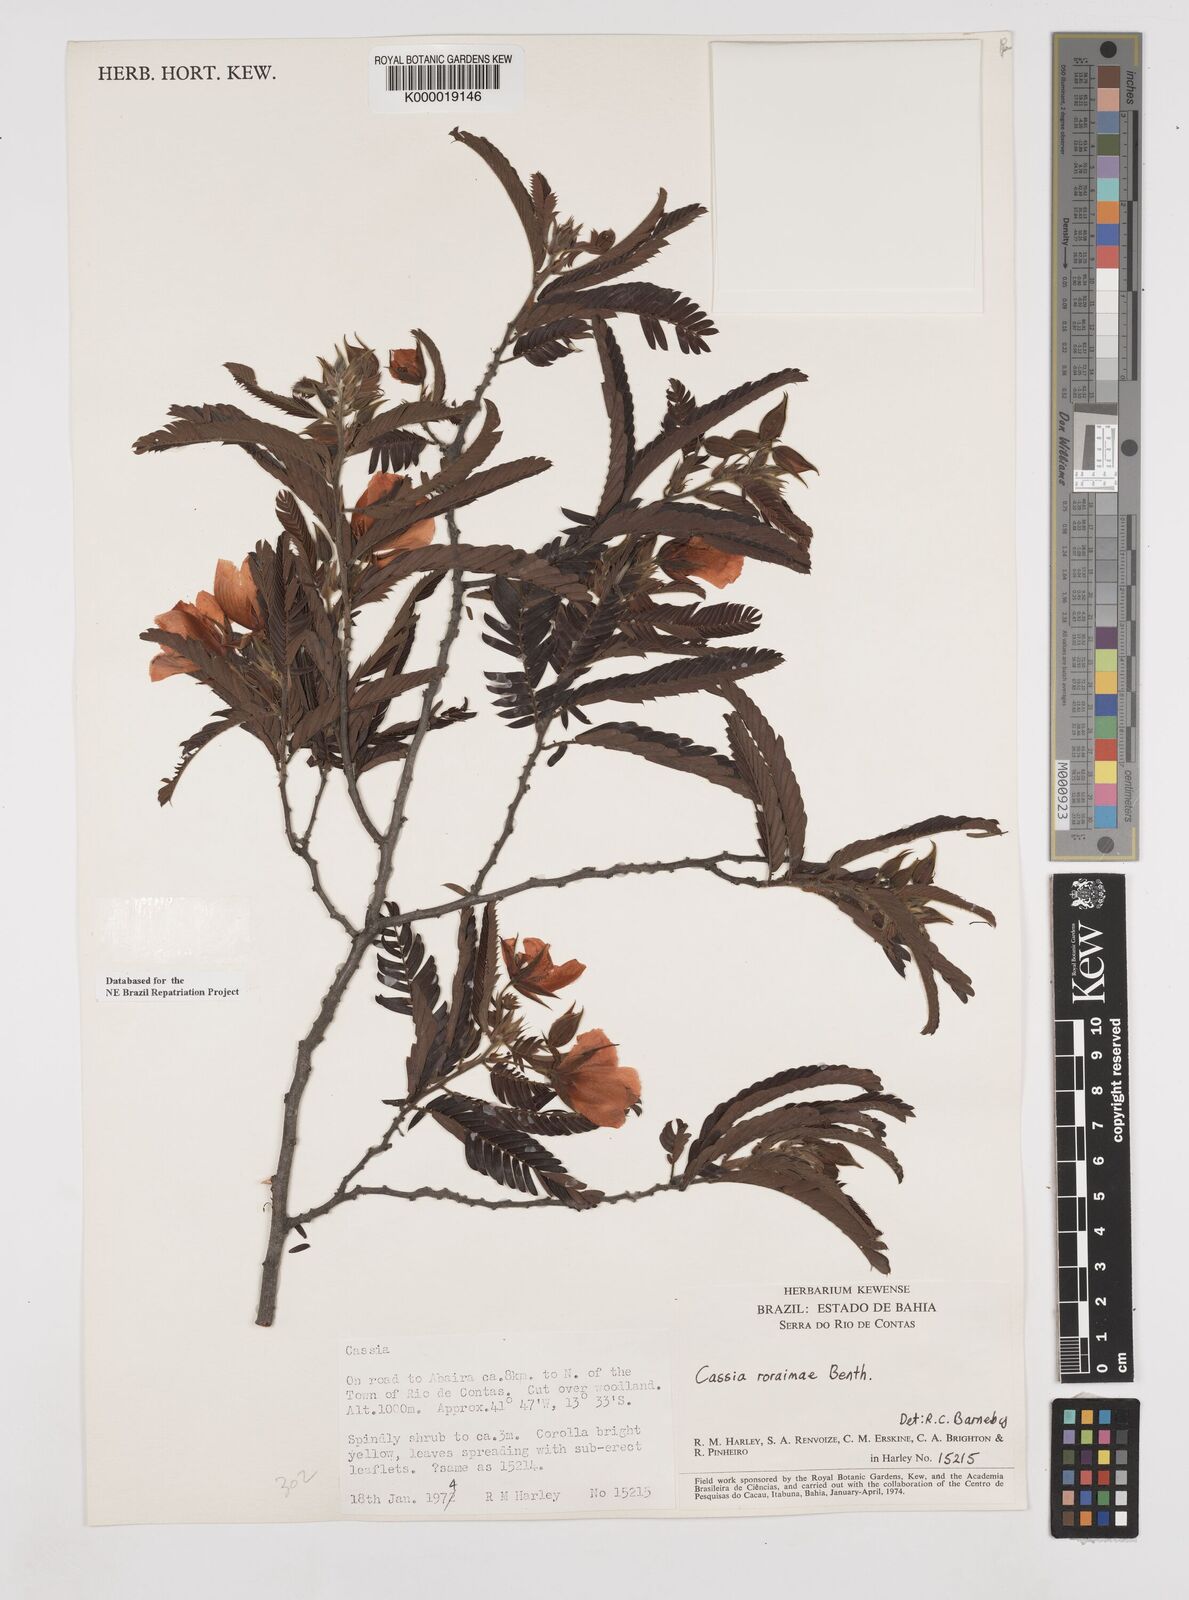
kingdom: Plantae
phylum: Tracheophyta
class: Magnoliopsida
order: Fabales
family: Fabaceae
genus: Chamaecrista
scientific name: Chamaecrista roraimae
